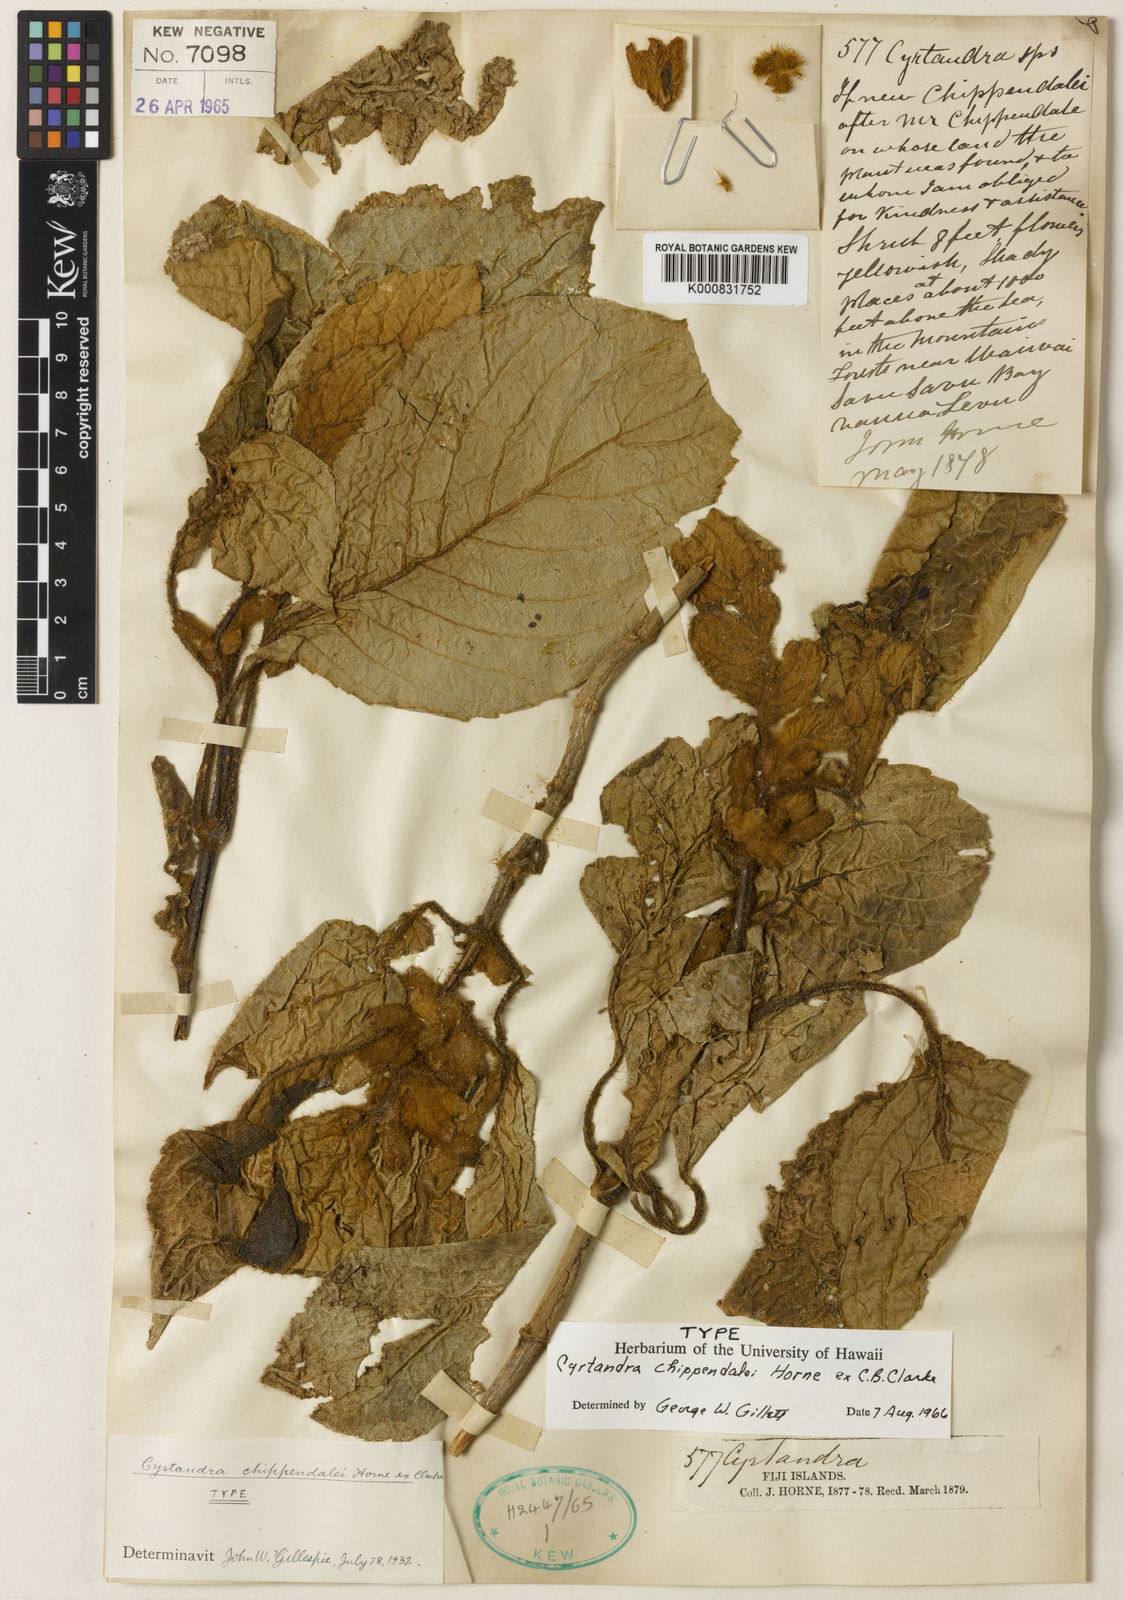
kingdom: Plantae
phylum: Tracheophyta
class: Magnoliopsida
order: Lamiales
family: Gesneriaceae
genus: Cyrtandra
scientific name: Cyrtandra chippendalei
